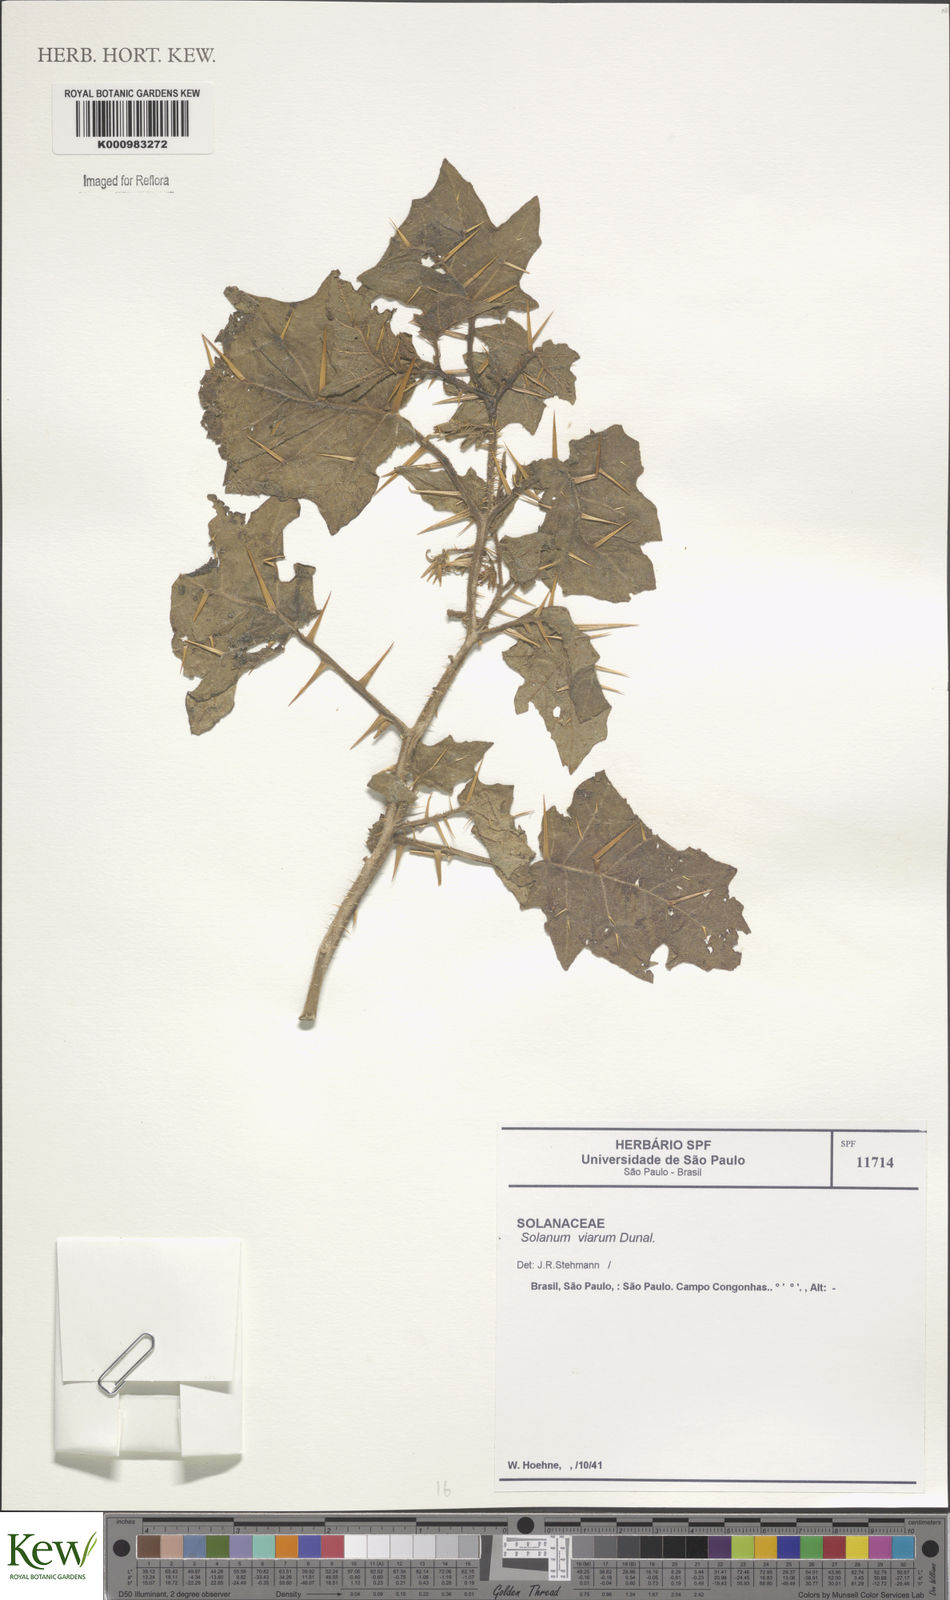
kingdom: Plantae
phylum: Tracheophyta
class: Magnoliopsida
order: Solanales
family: Solanaceae
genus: Solanum
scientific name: Solanum viarum
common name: Tropical soda apple
